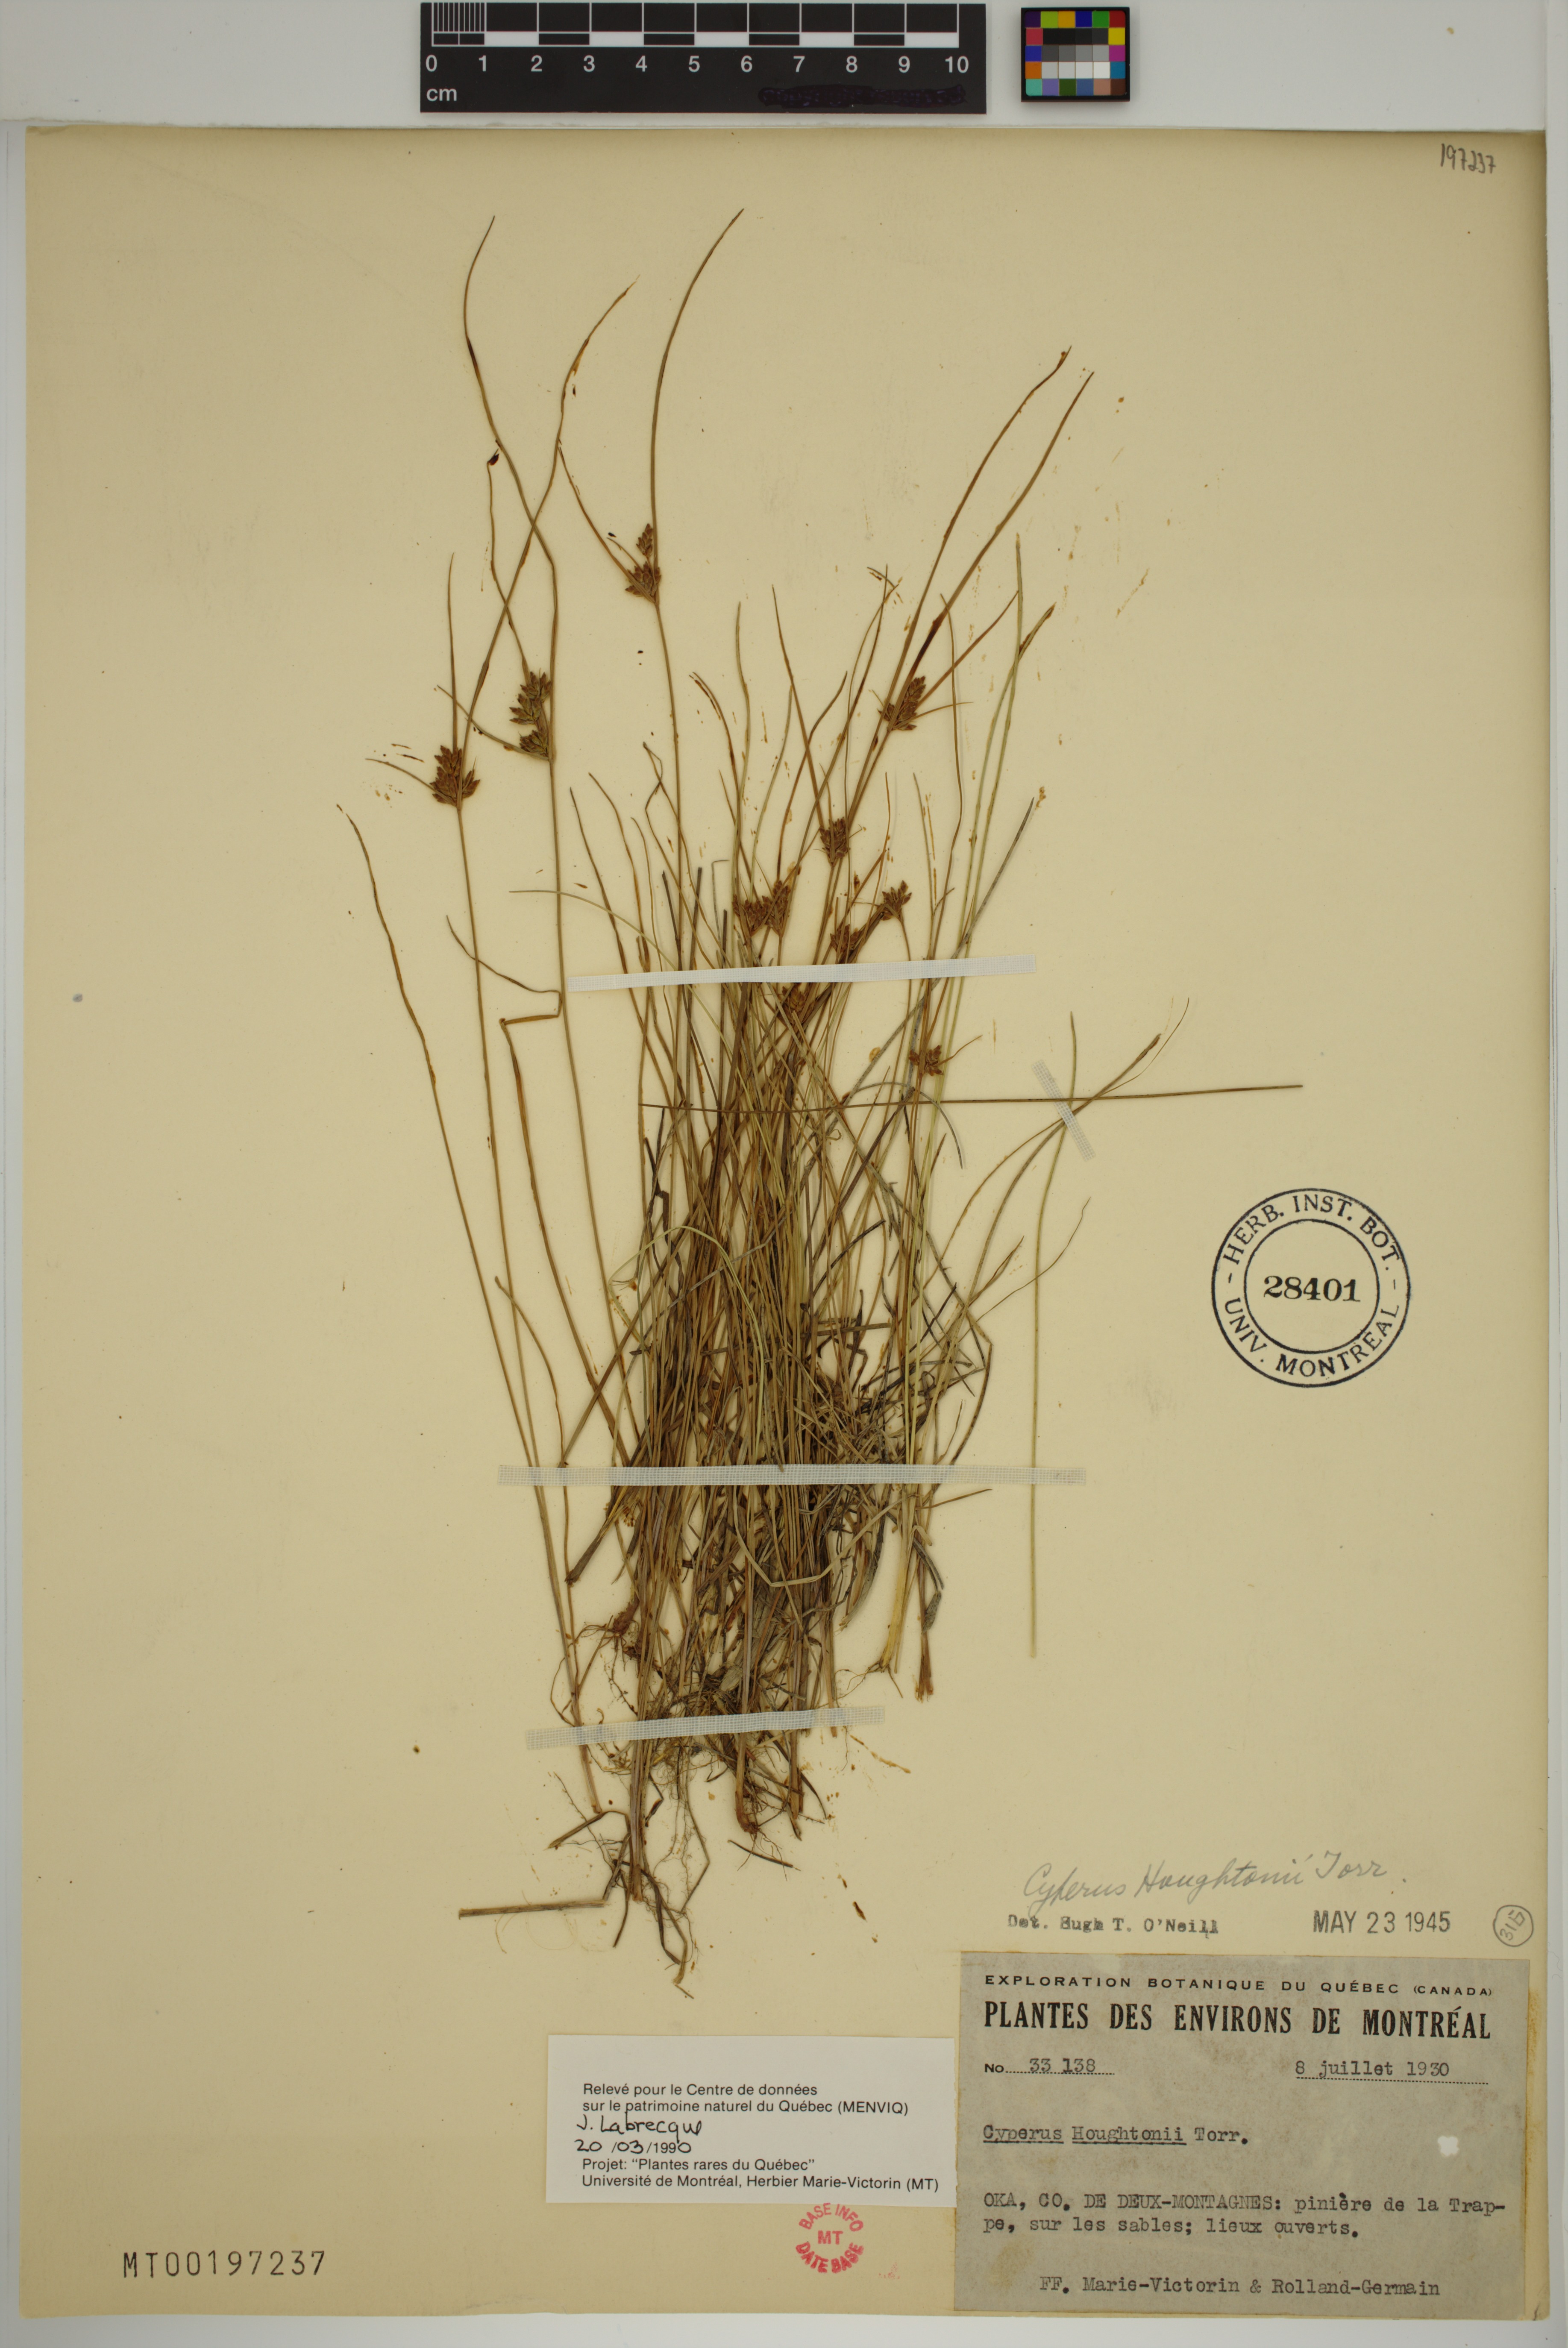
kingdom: Plantae
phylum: Tracheophyta
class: Liliopsida
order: Poales
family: Cyperaceae
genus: Cyperus
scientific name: Cyperus houghtonii
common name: Houghton's cyperus
